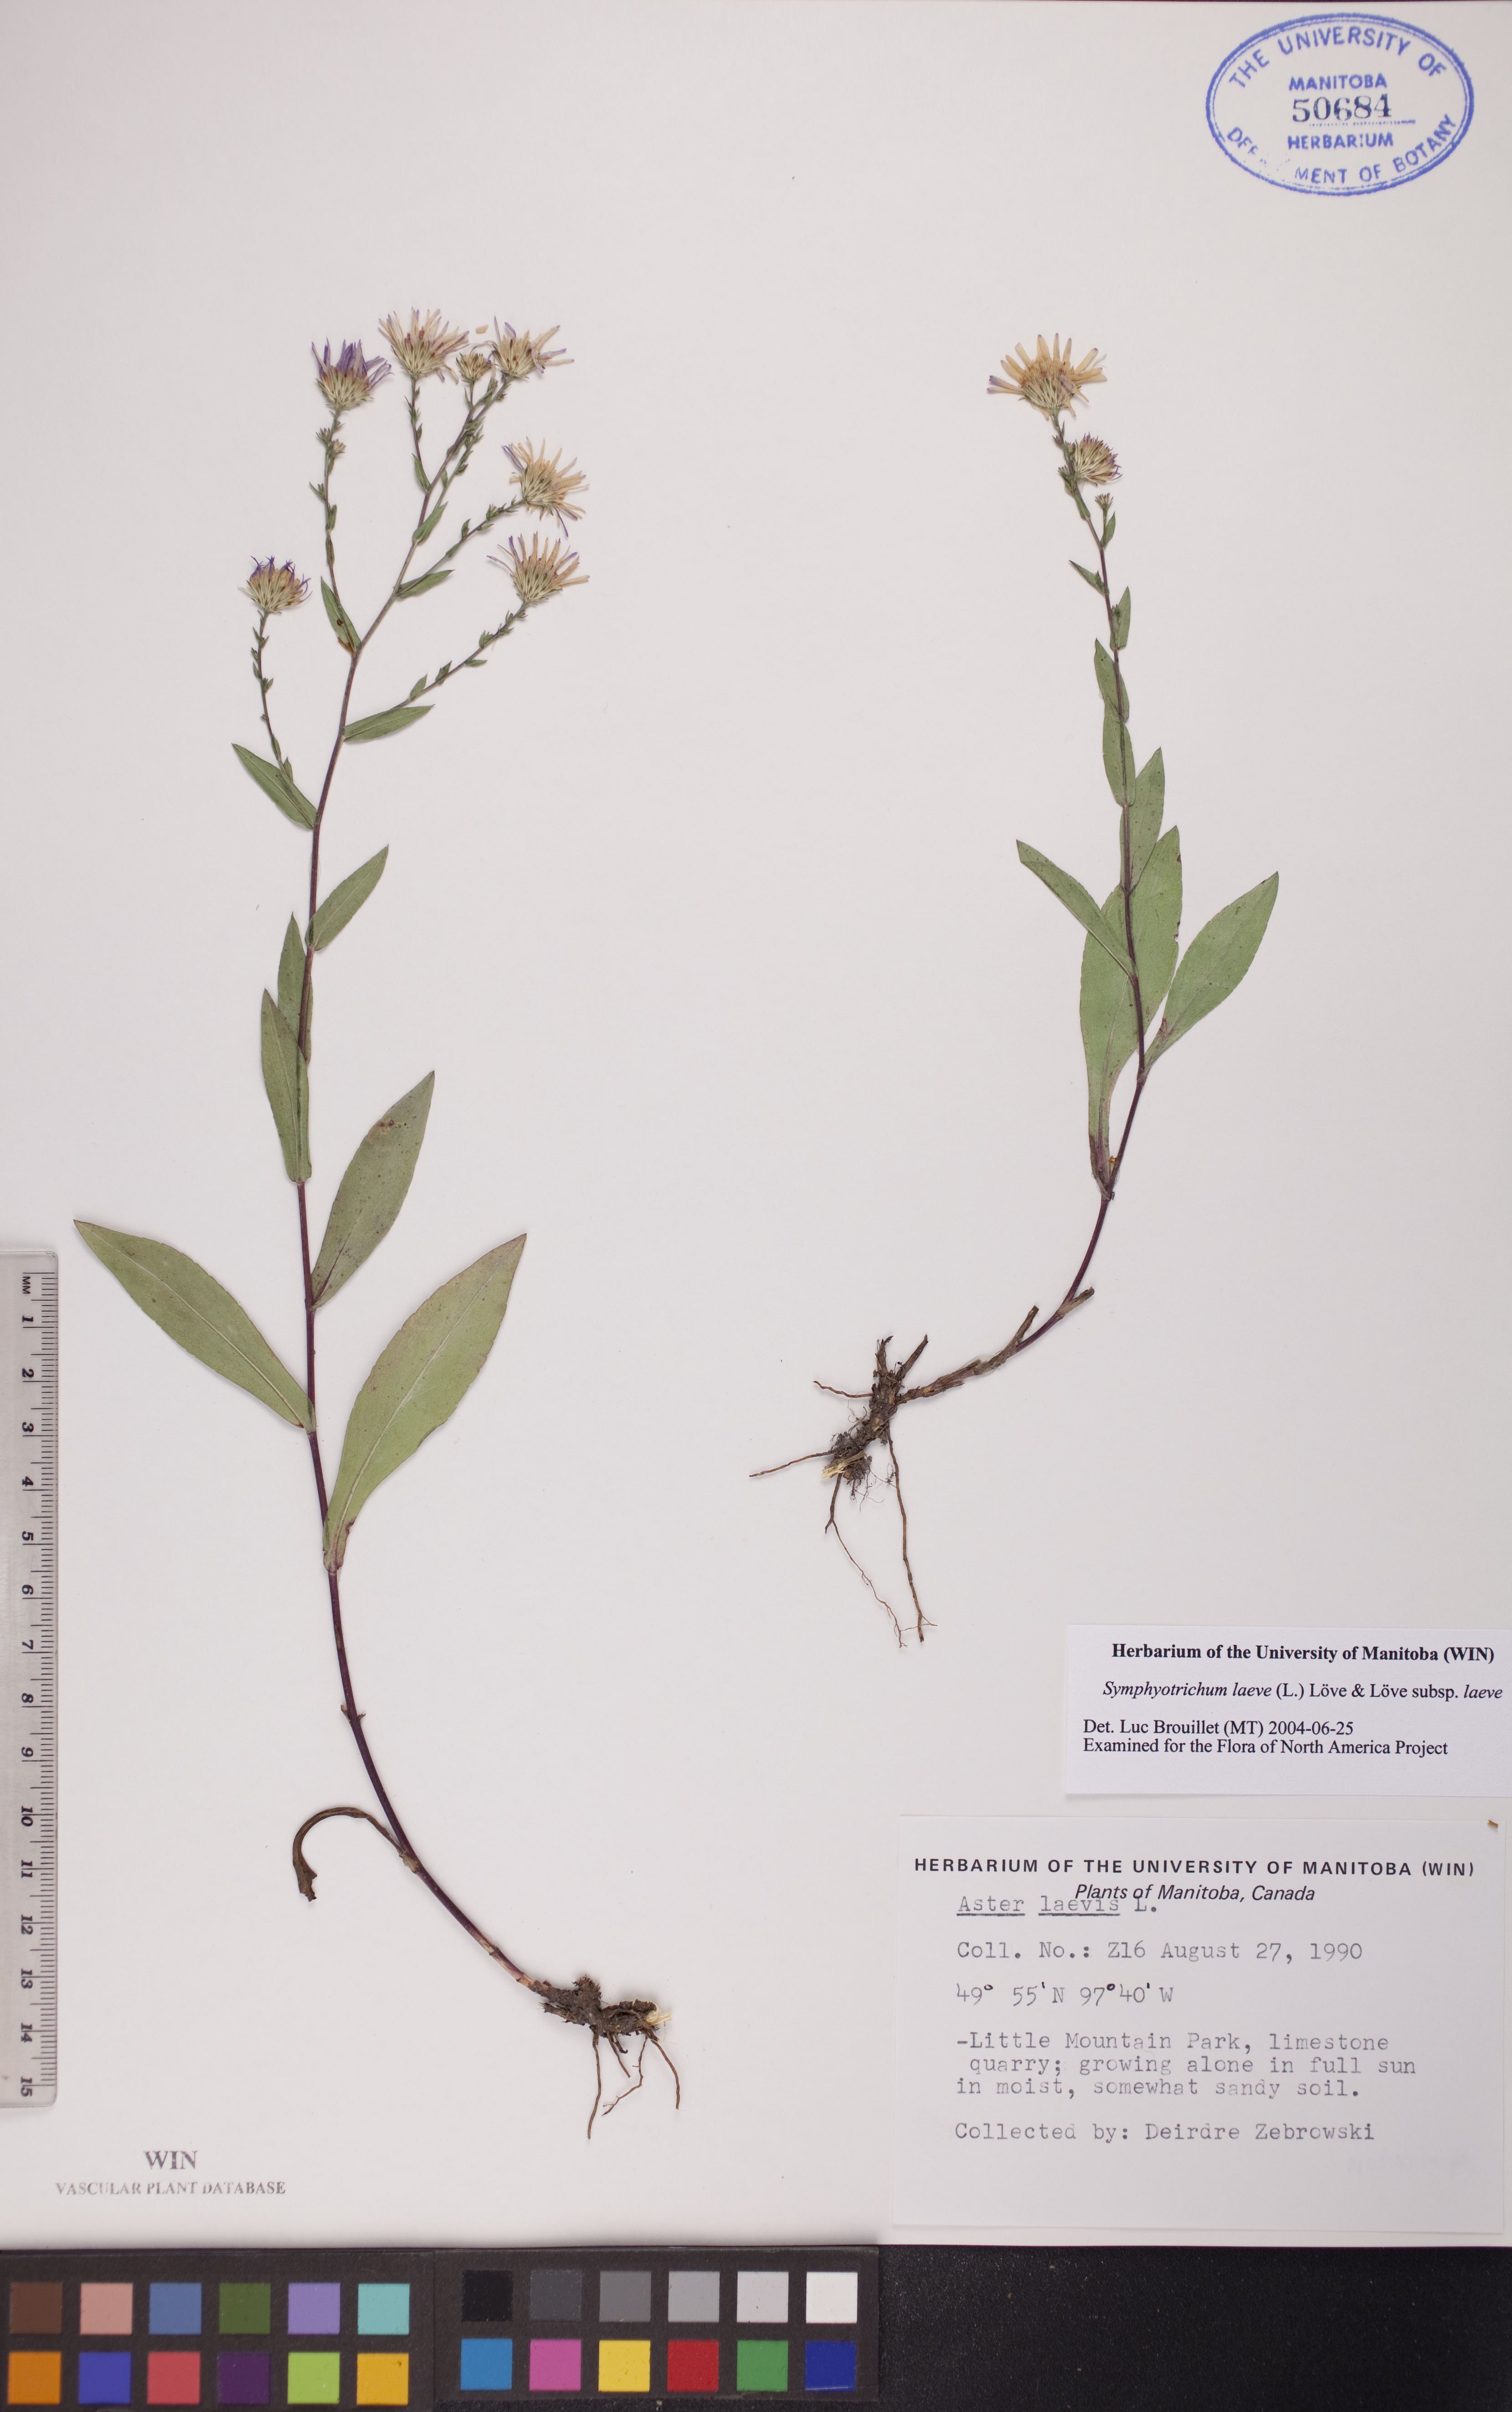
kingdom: Plantae
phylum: Tracheophyta
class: Magnoliopsida
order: Asterales
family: Asteraceae
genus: Symphyotrichum
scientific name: Symphyotrichum laeve
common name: Glaucous aster
